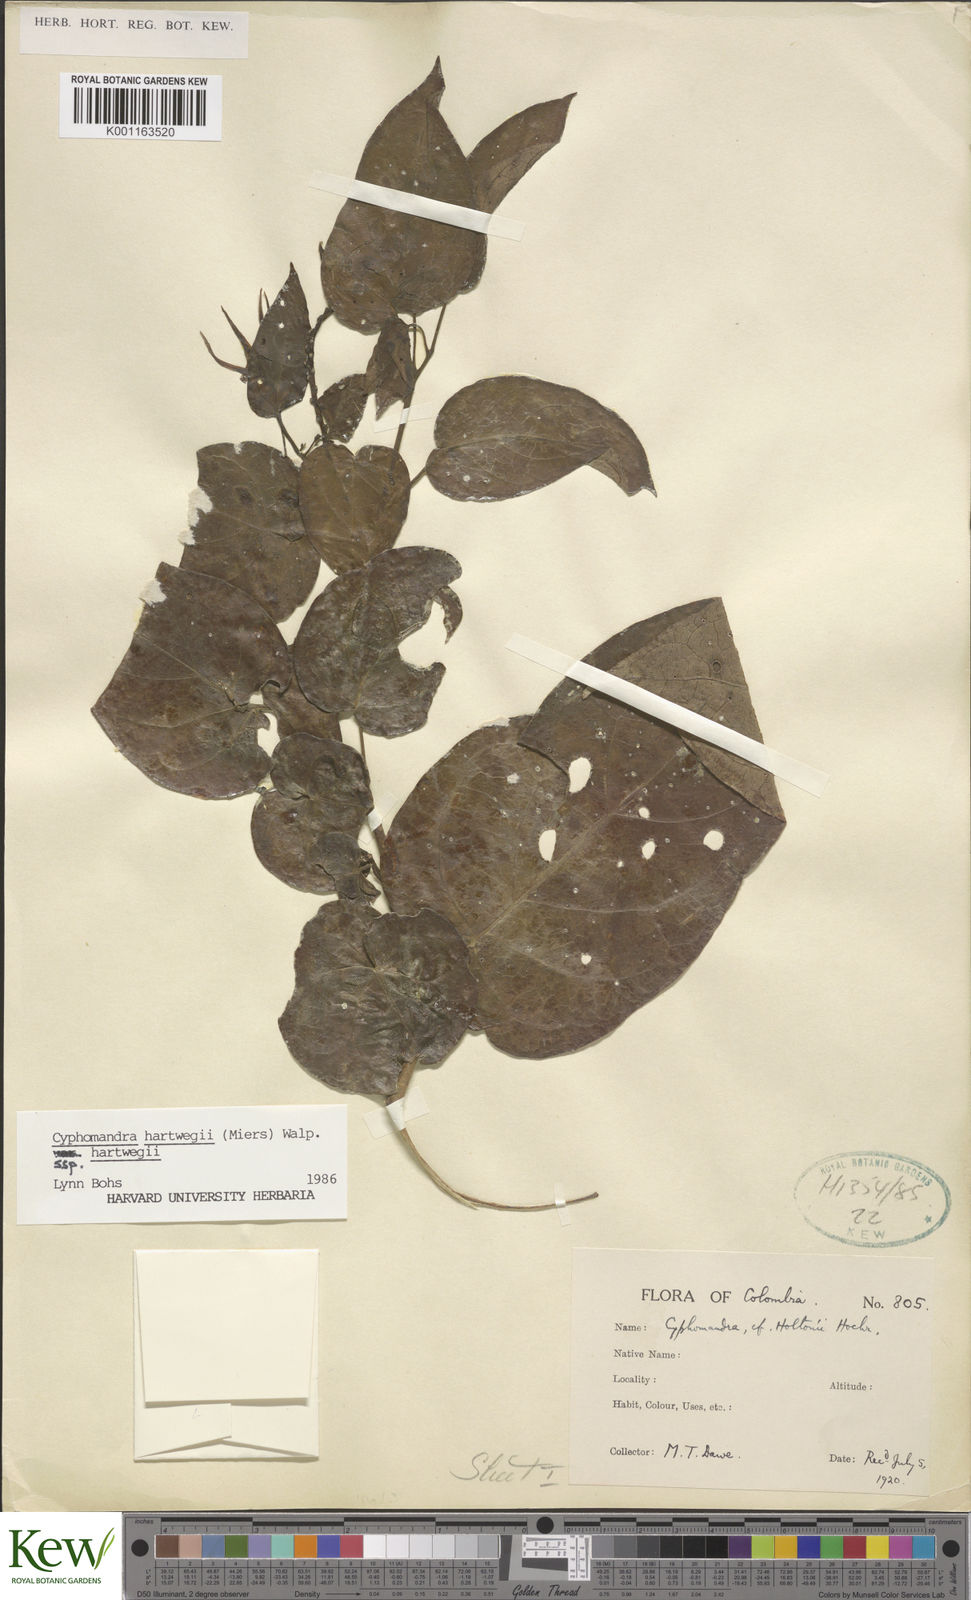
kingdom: Plantae
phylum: Tracheophyta
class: Magnoliopsida
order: Solanales
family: Solanaceae
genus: Solanum
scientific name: Solanum splendens
